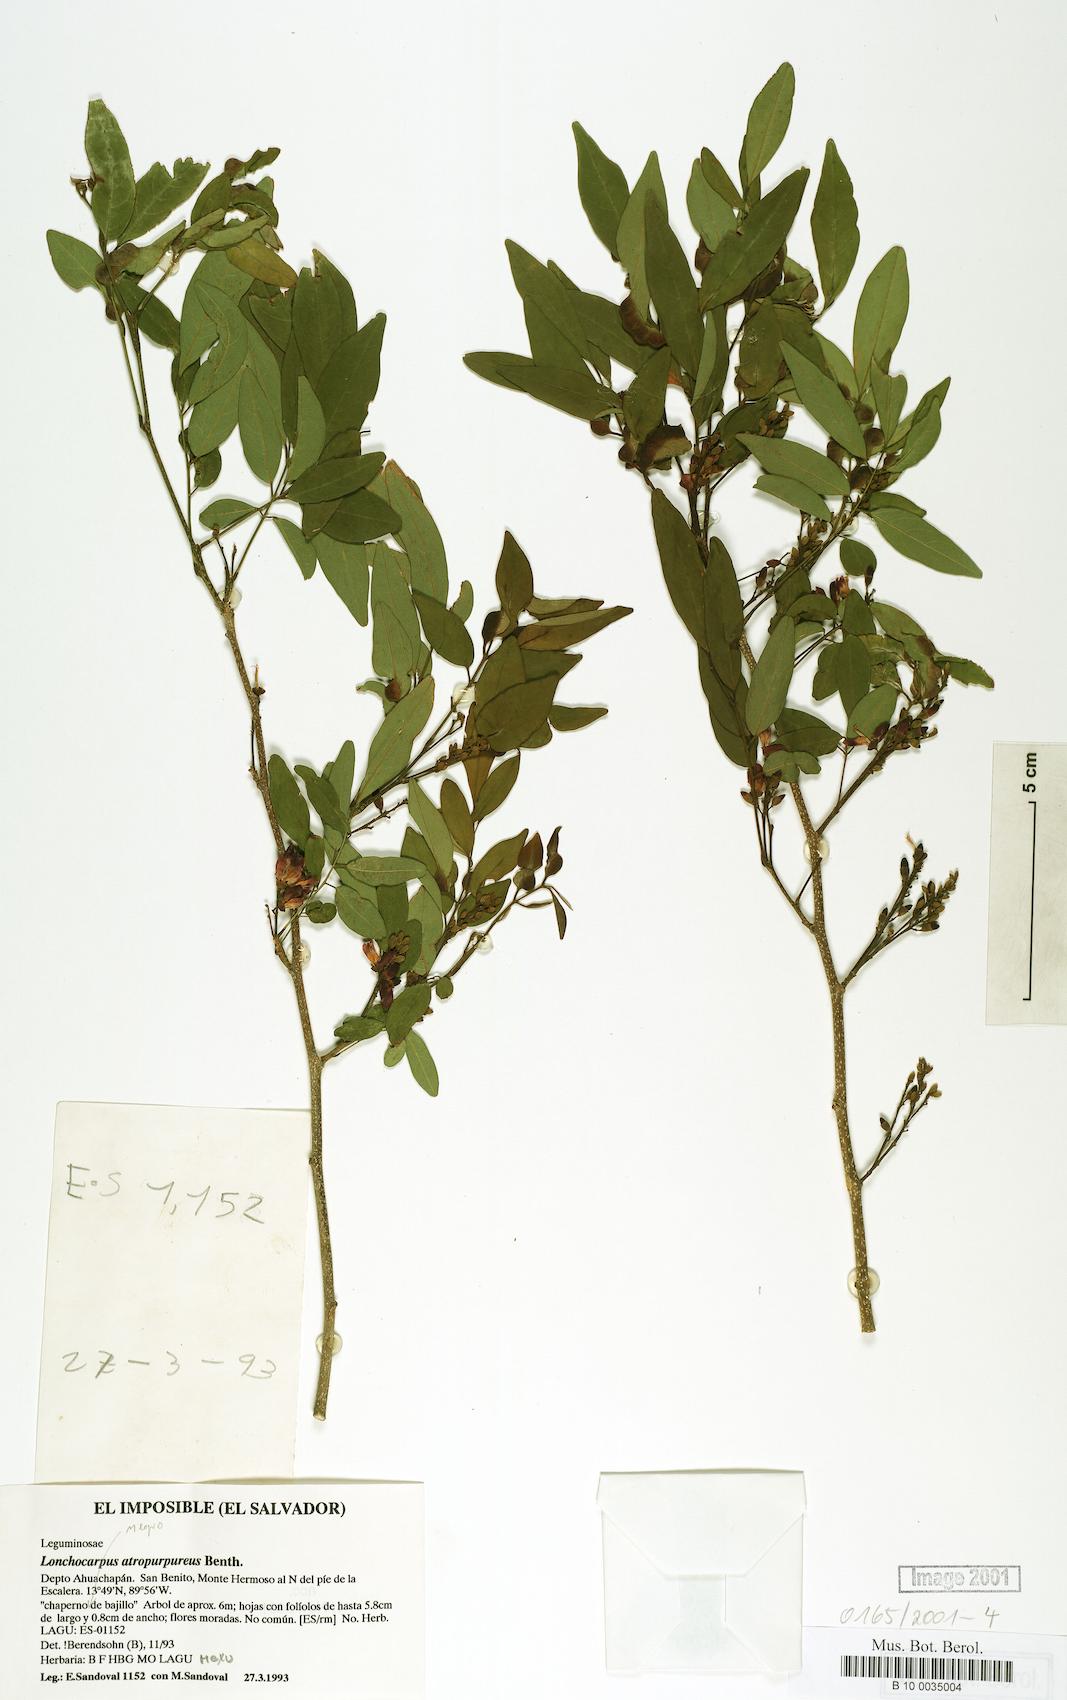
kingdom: Plantae
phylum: Tracheophyta
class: Magnoliopsida
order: Fabales
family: Fabaceae
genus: Lonchocarpus
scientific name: Lonchocarpus atropurpureus
